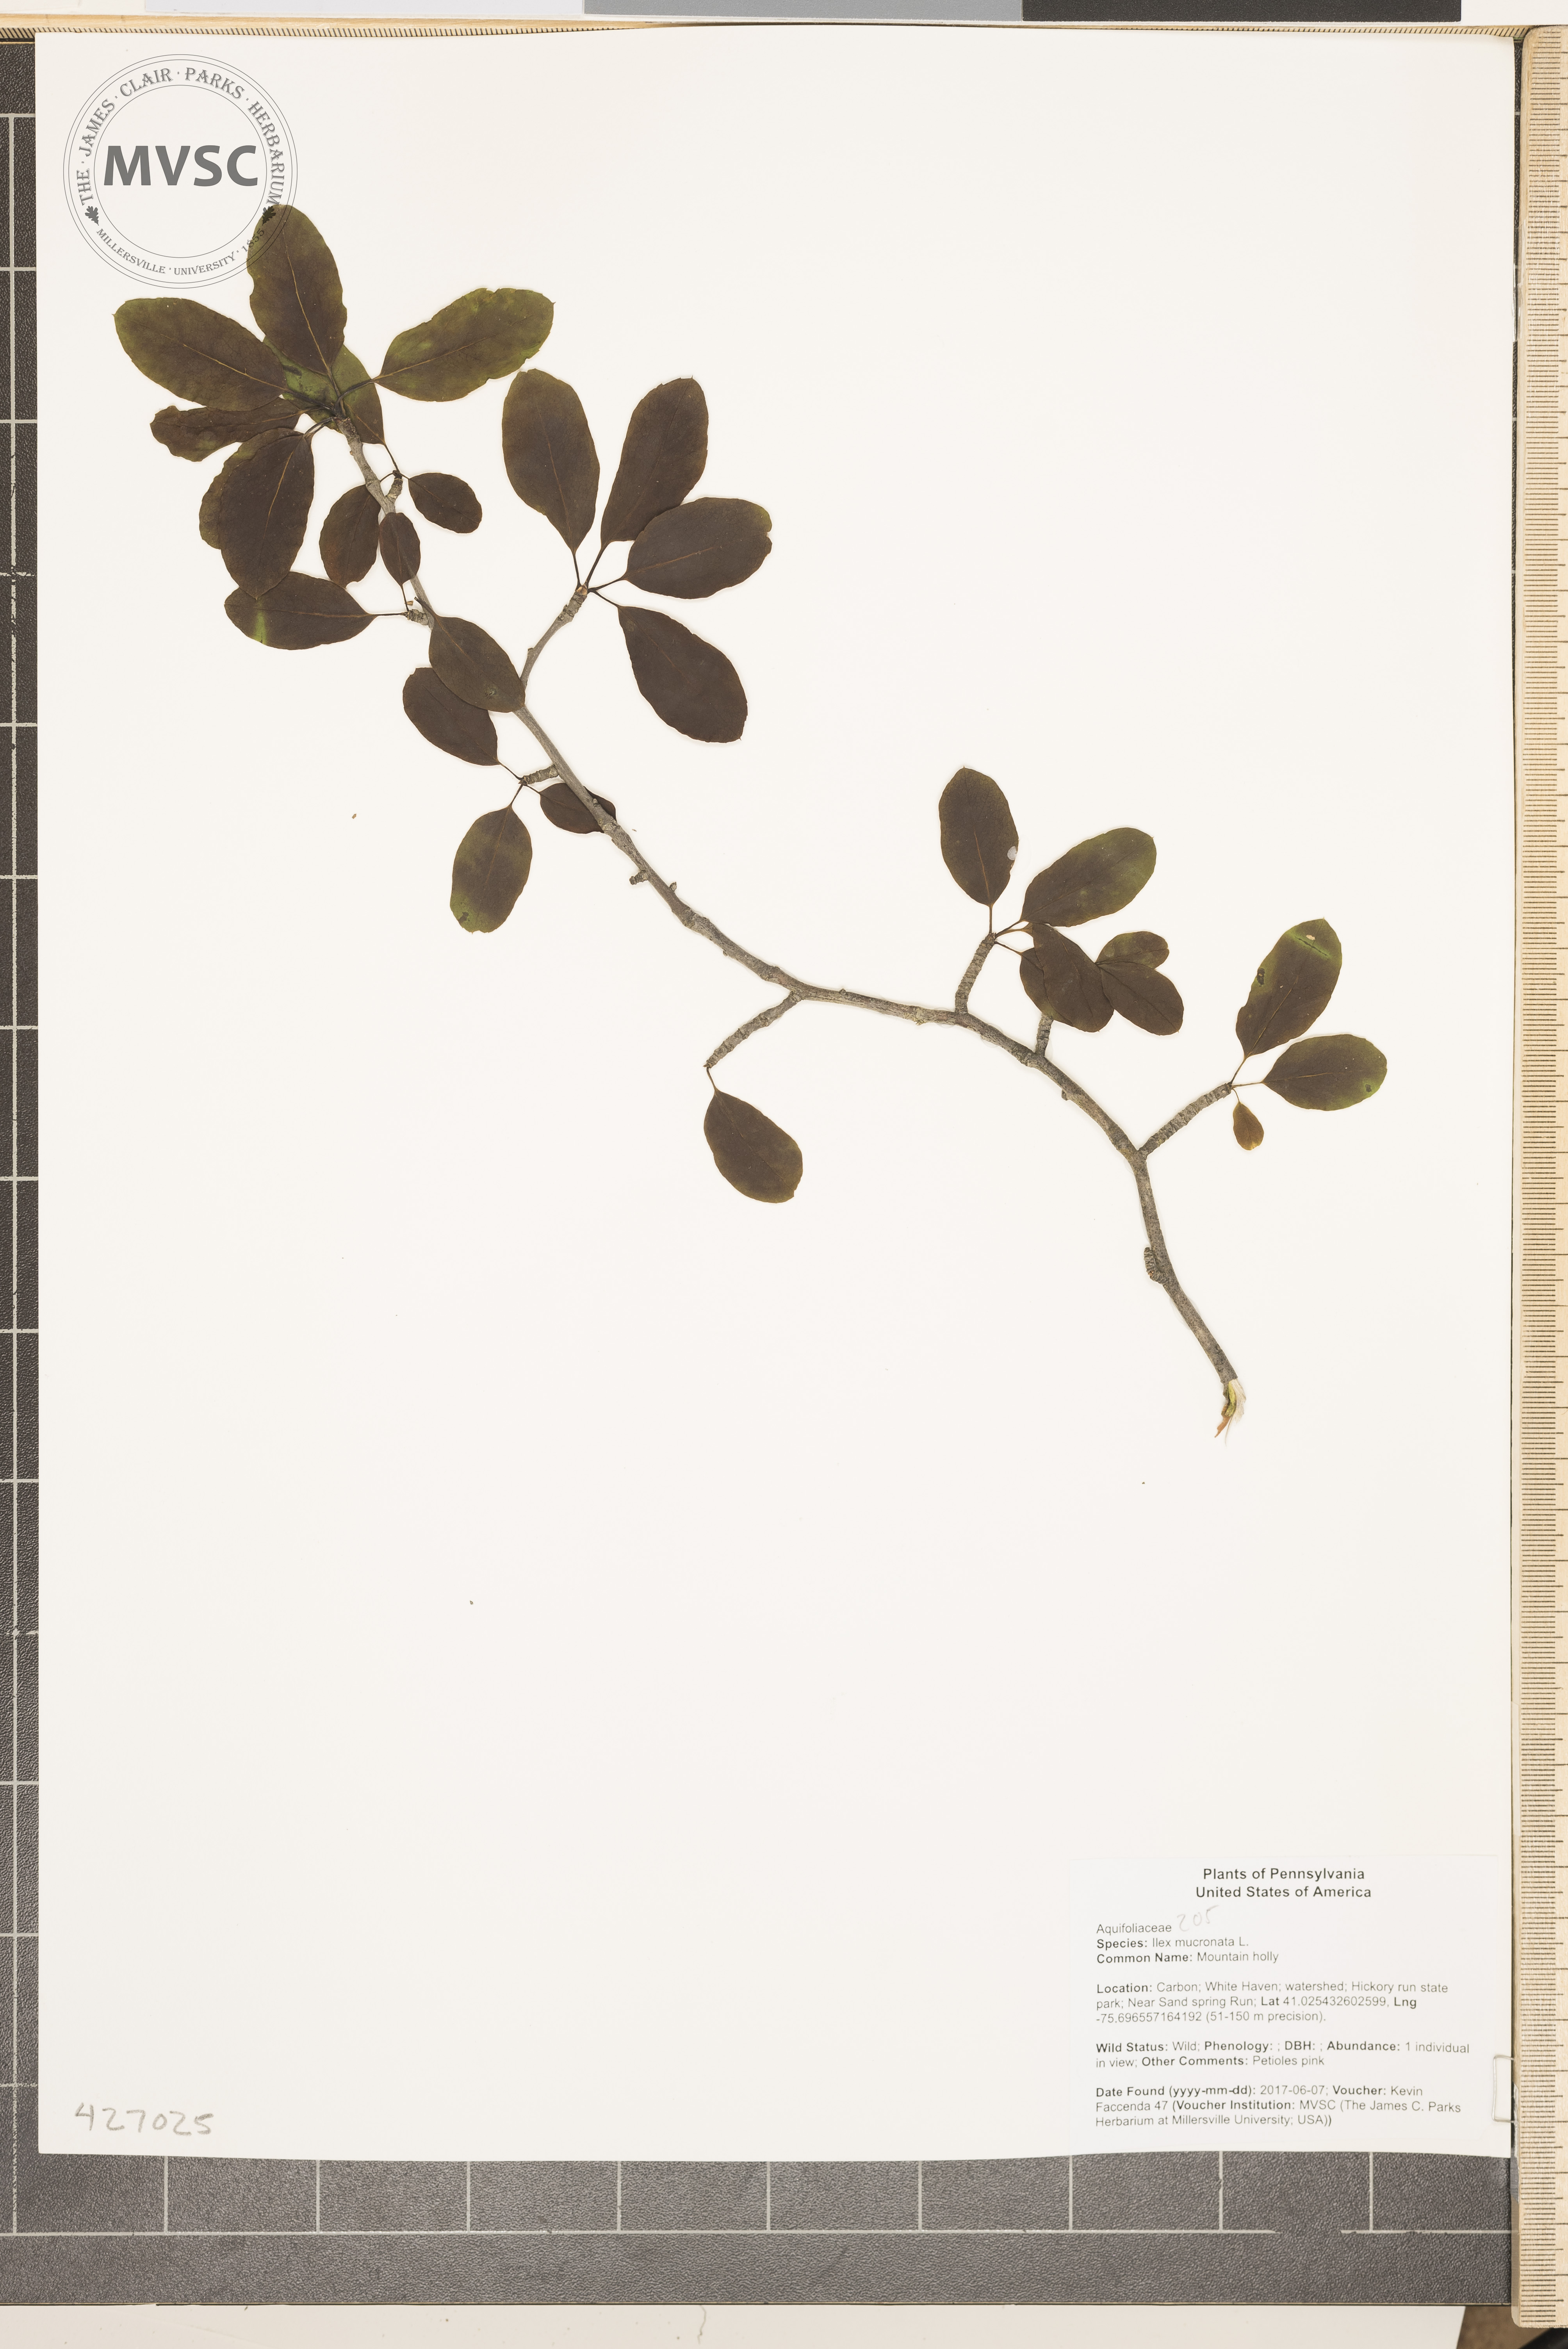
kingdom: Plantae
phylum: Tracheophyta
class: Magnoliopsida
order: Aquifoliales
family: Aquifoliaceae
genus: Ilex
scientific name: Ilex mucronata
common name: Mountain holly
